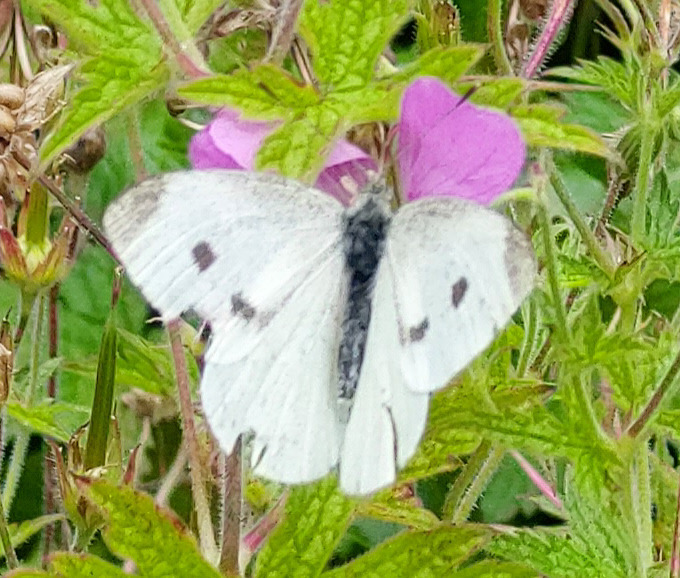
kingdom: Animalia
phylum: Arthropoda
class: Insecta
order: Lepidoptera
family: Pieridae
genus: Pieris
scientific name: Pieris rapae
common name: Lille kålsommerfugl
